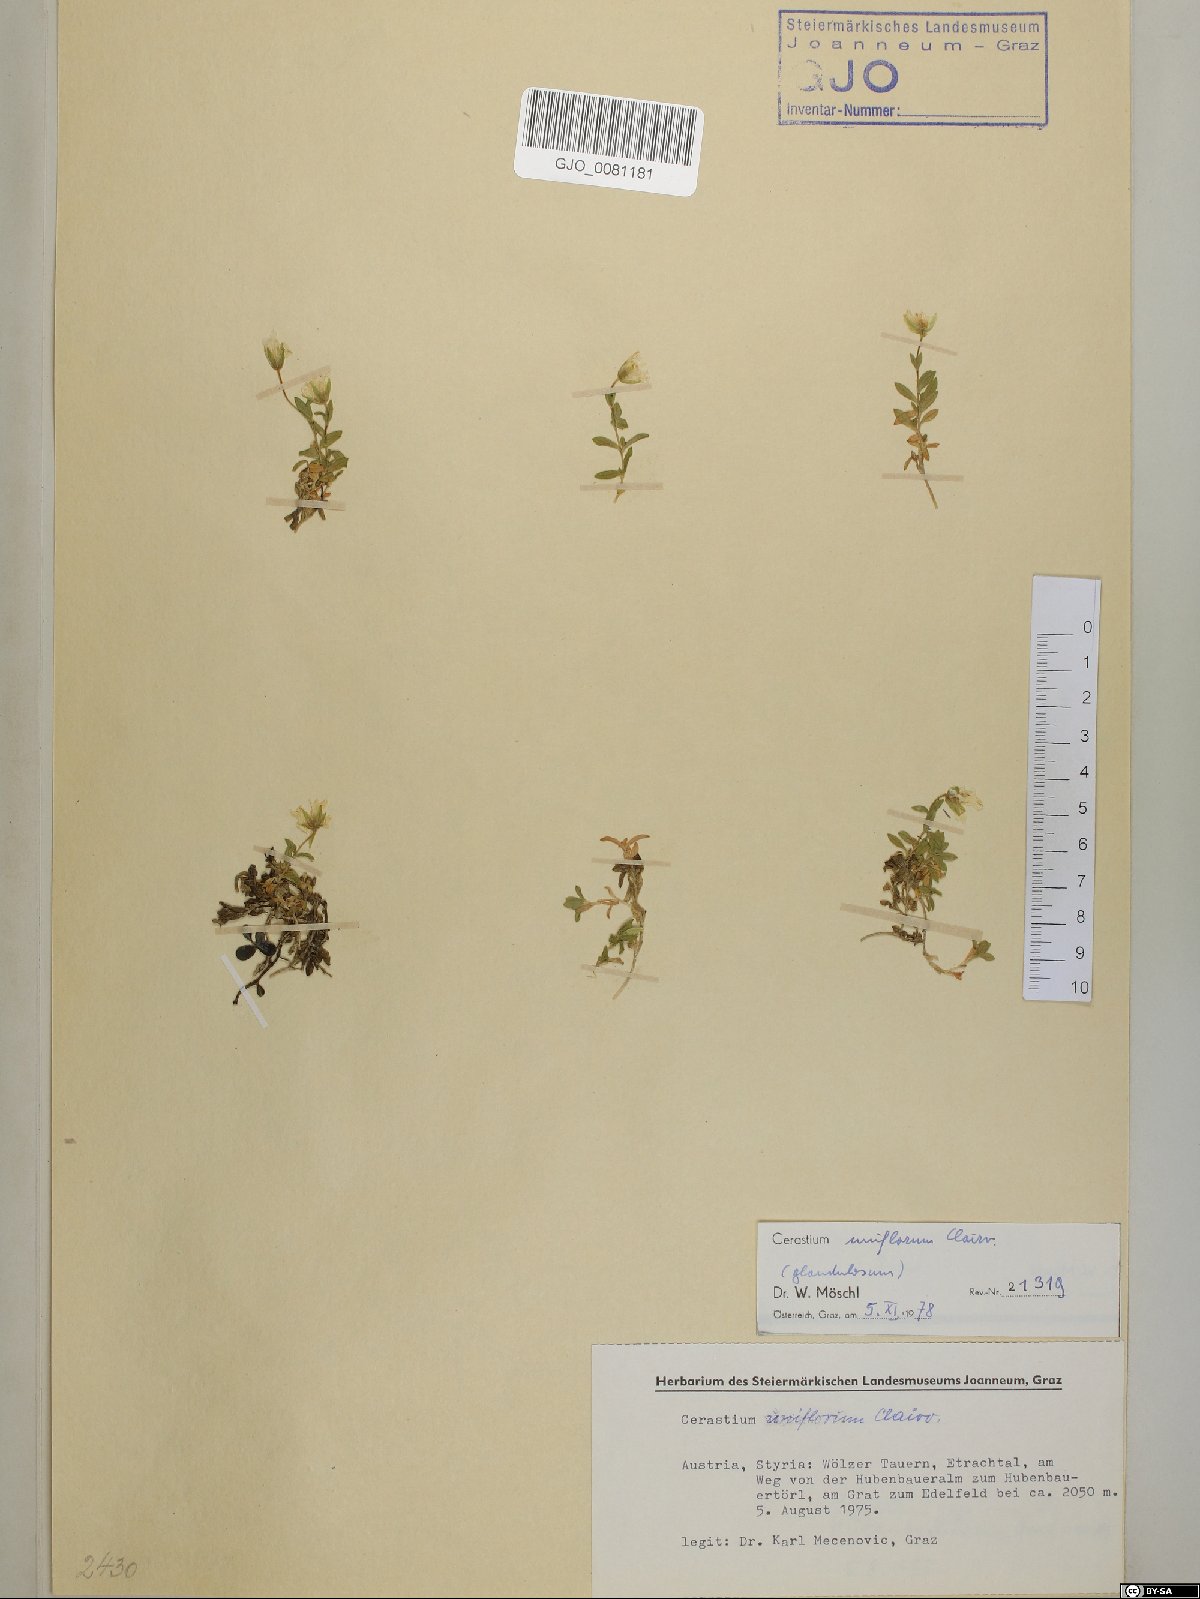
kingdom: Plantae
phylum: Tracheophyta
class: Magnoliopsida
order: Caryophyllales
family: Caryophyllaceae
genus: Cerastium
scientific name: Cerastium uniflorum
